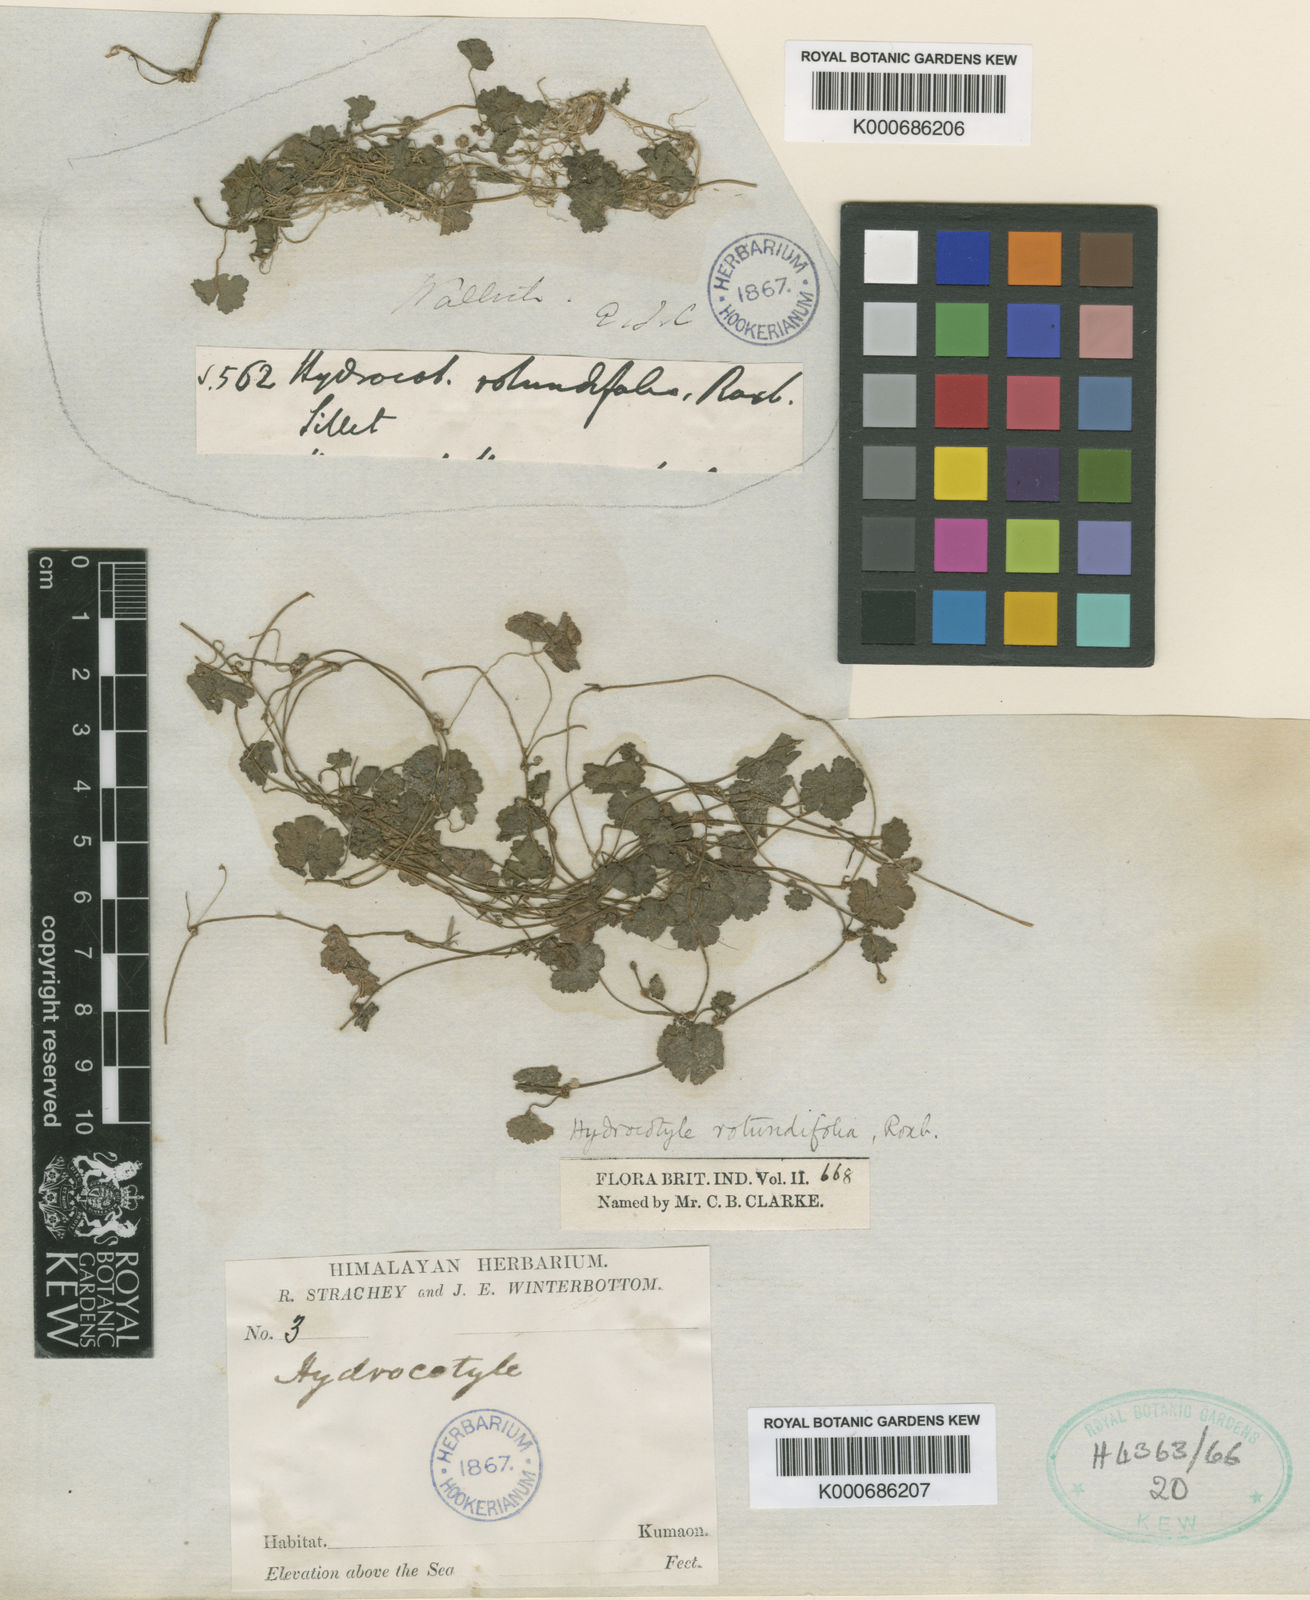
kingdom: Plantae
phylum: Tracheophyta
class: Magnoliopsida
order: Apiales
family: Araliaceae
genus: Hydrocotyle
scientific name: Hydrocotyle sibthorpioides
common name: Lawn marshpennywort
